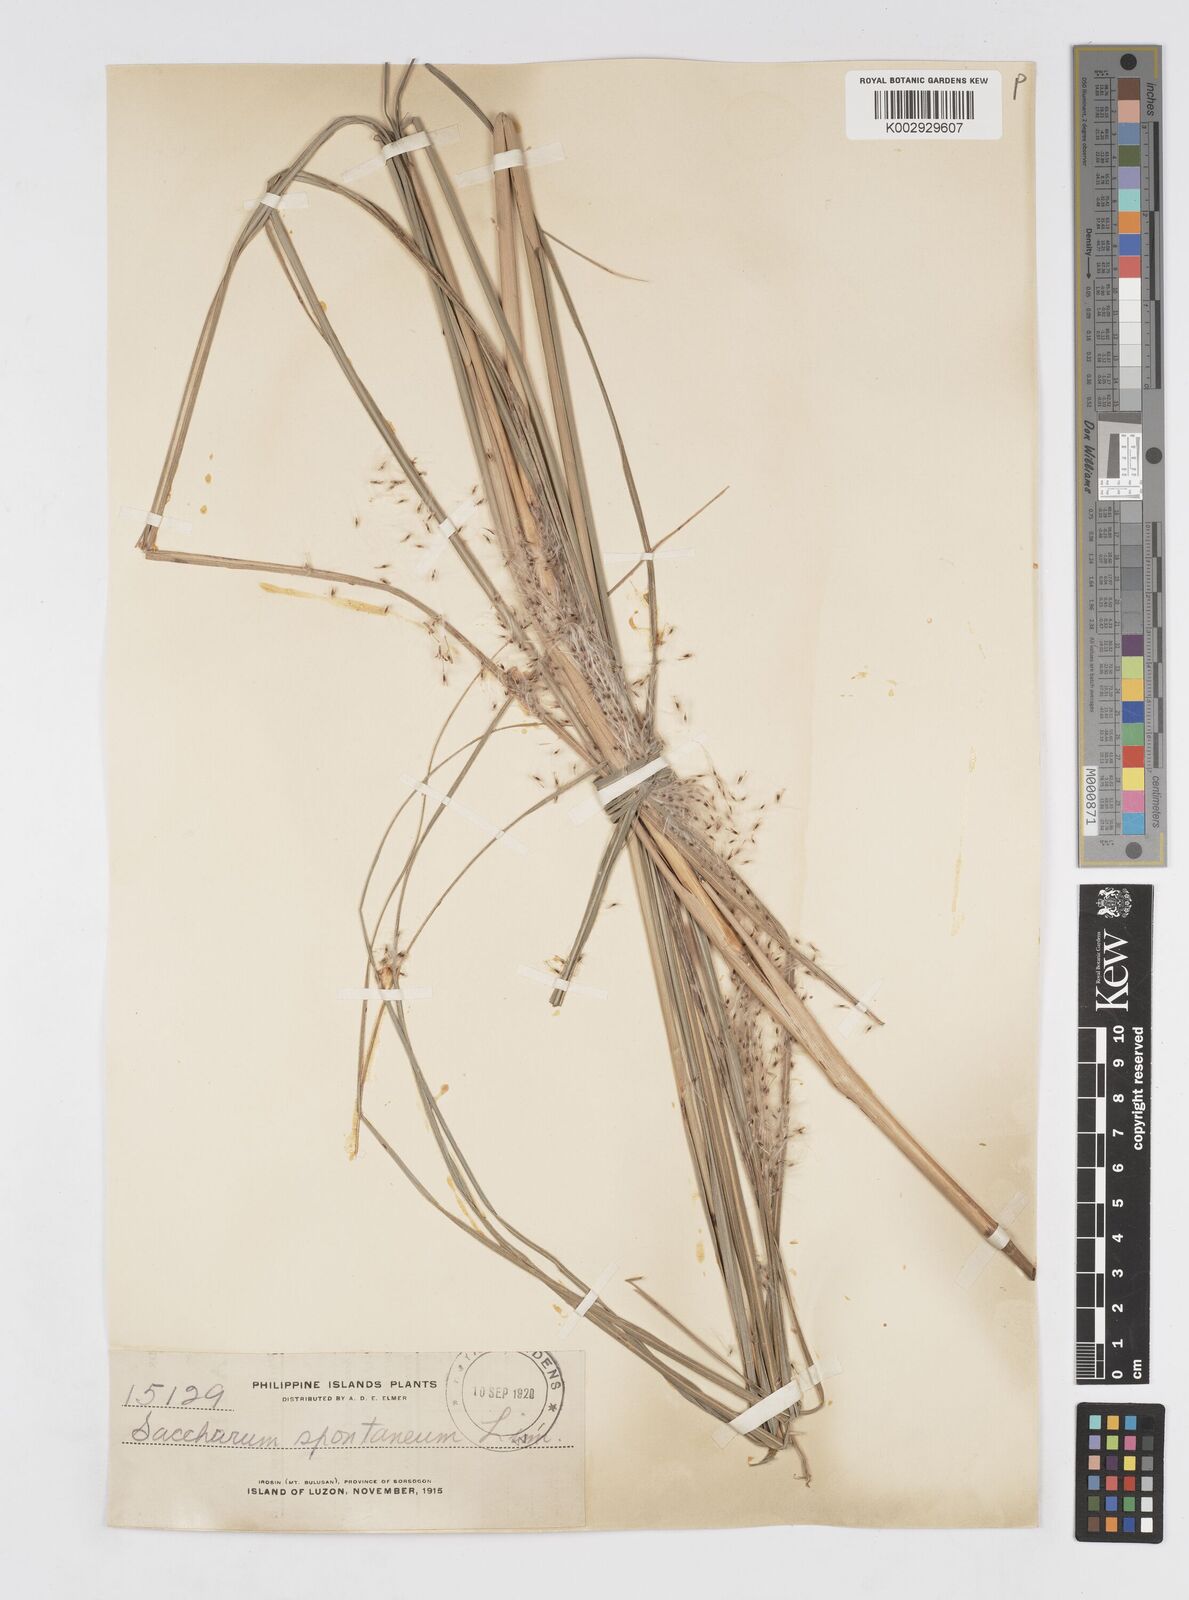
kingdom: Plantae
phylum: Tracheophyta
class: Liliopsida
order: Poales
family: Poaceae
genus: Saccharum
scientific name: Saccharum spontaneum
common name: Wild sugarcane
